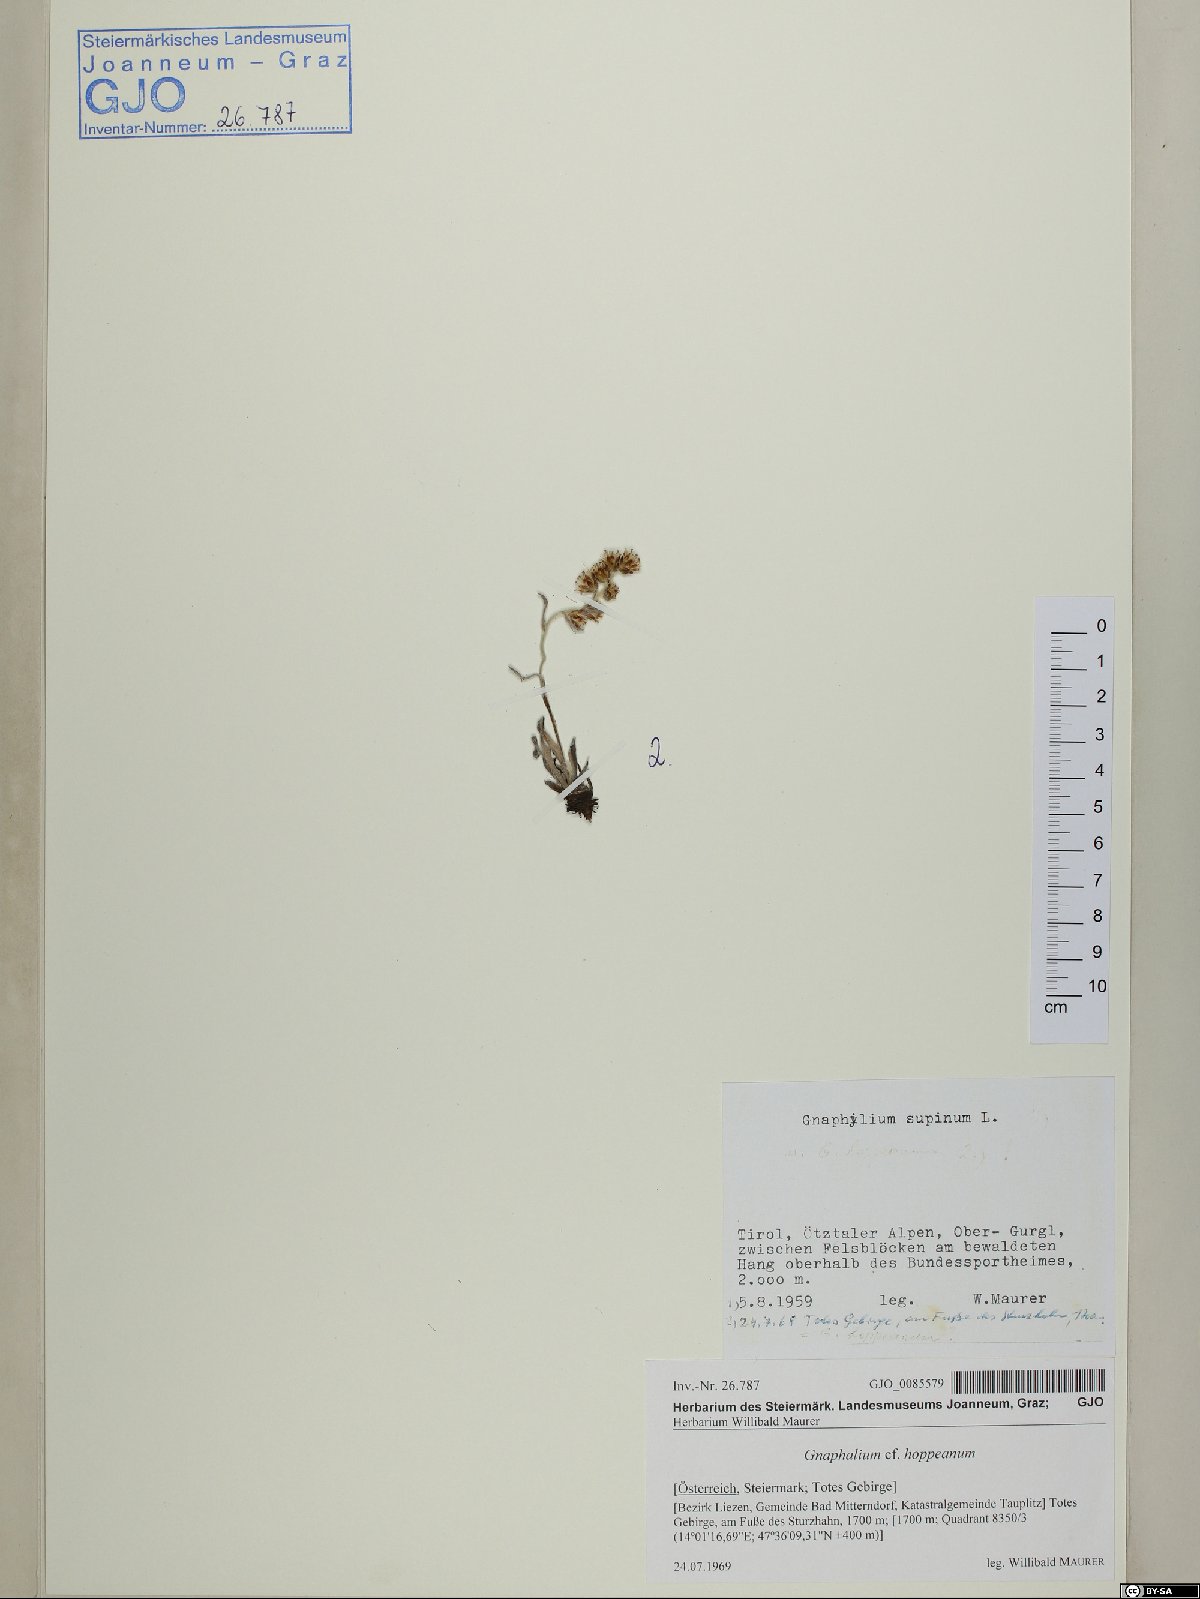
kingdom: Plantae
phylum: Tracheophyta
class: Magnoliopsida
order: Asterales
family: Asteraceae
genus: Omalotheca
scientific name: Omalotheca hoppeana
